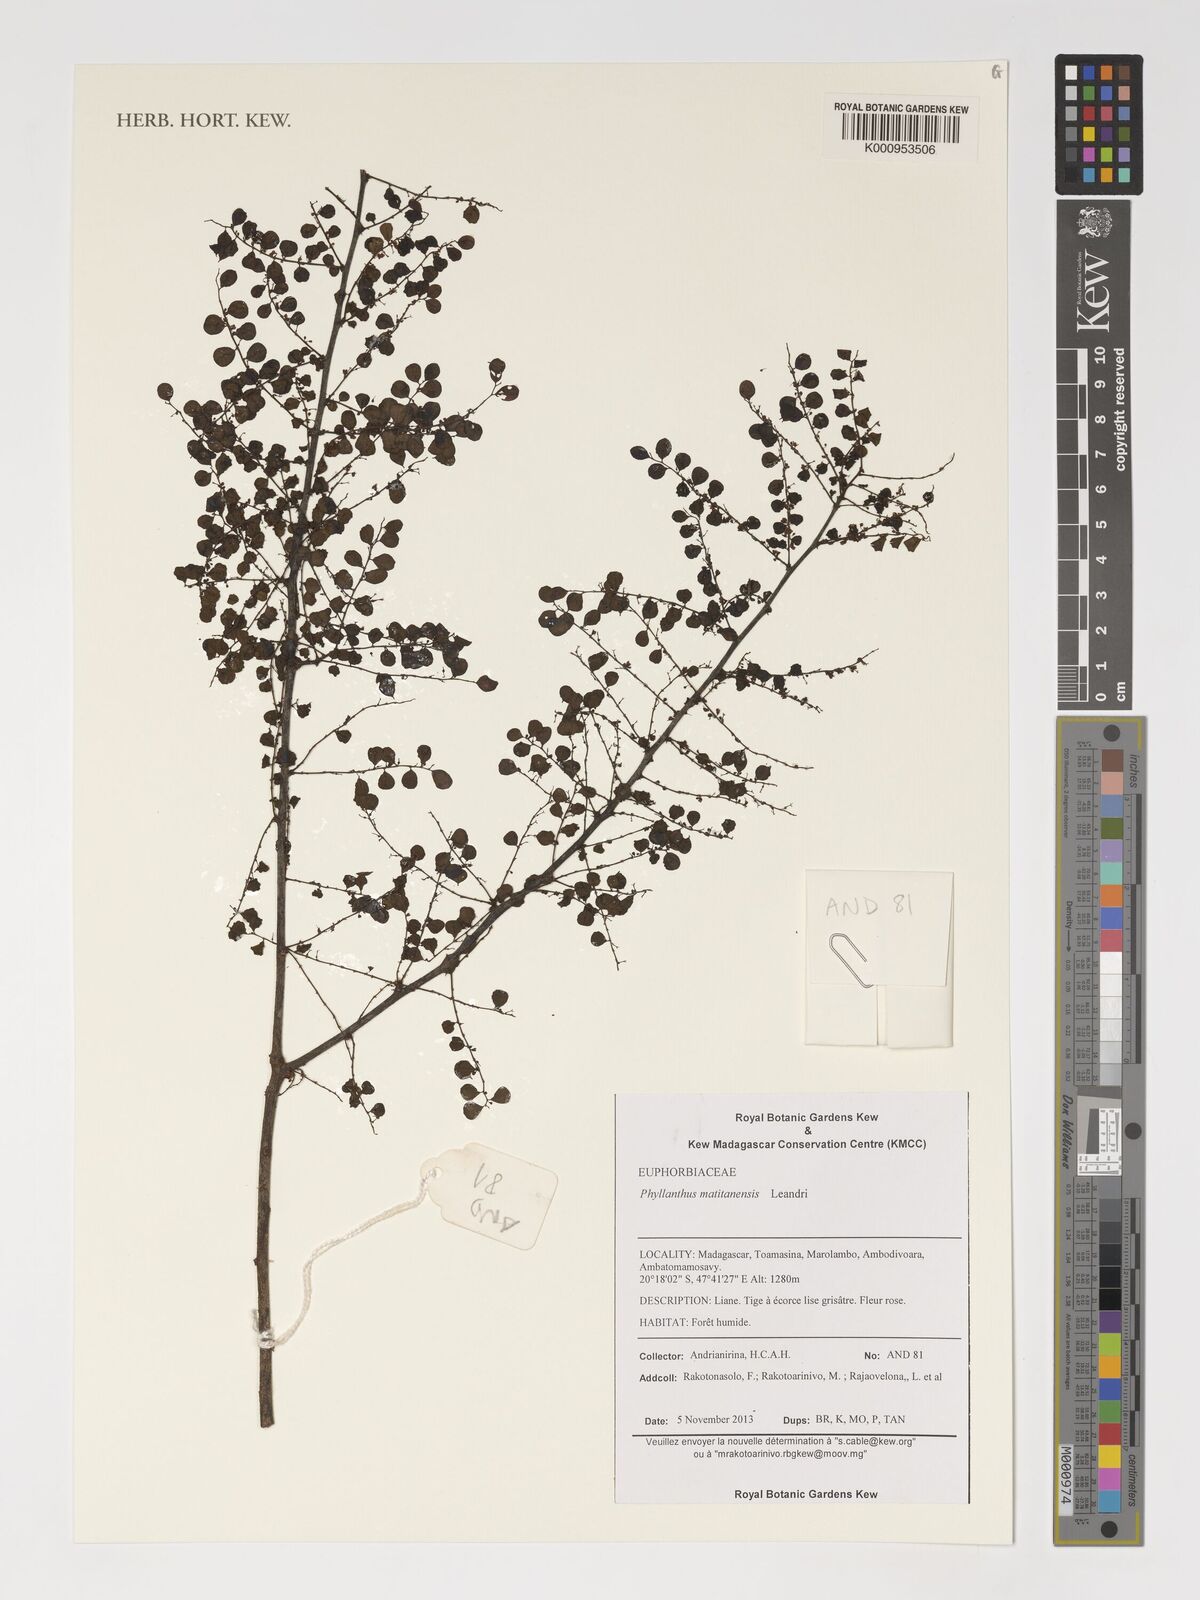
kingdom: Plantae
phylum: Tracheophyta
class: Magnoliopsida
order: Malpighiales
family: Phyllanthaceae
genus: Phyllanthus
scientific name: Phyllanthus matitanensis
